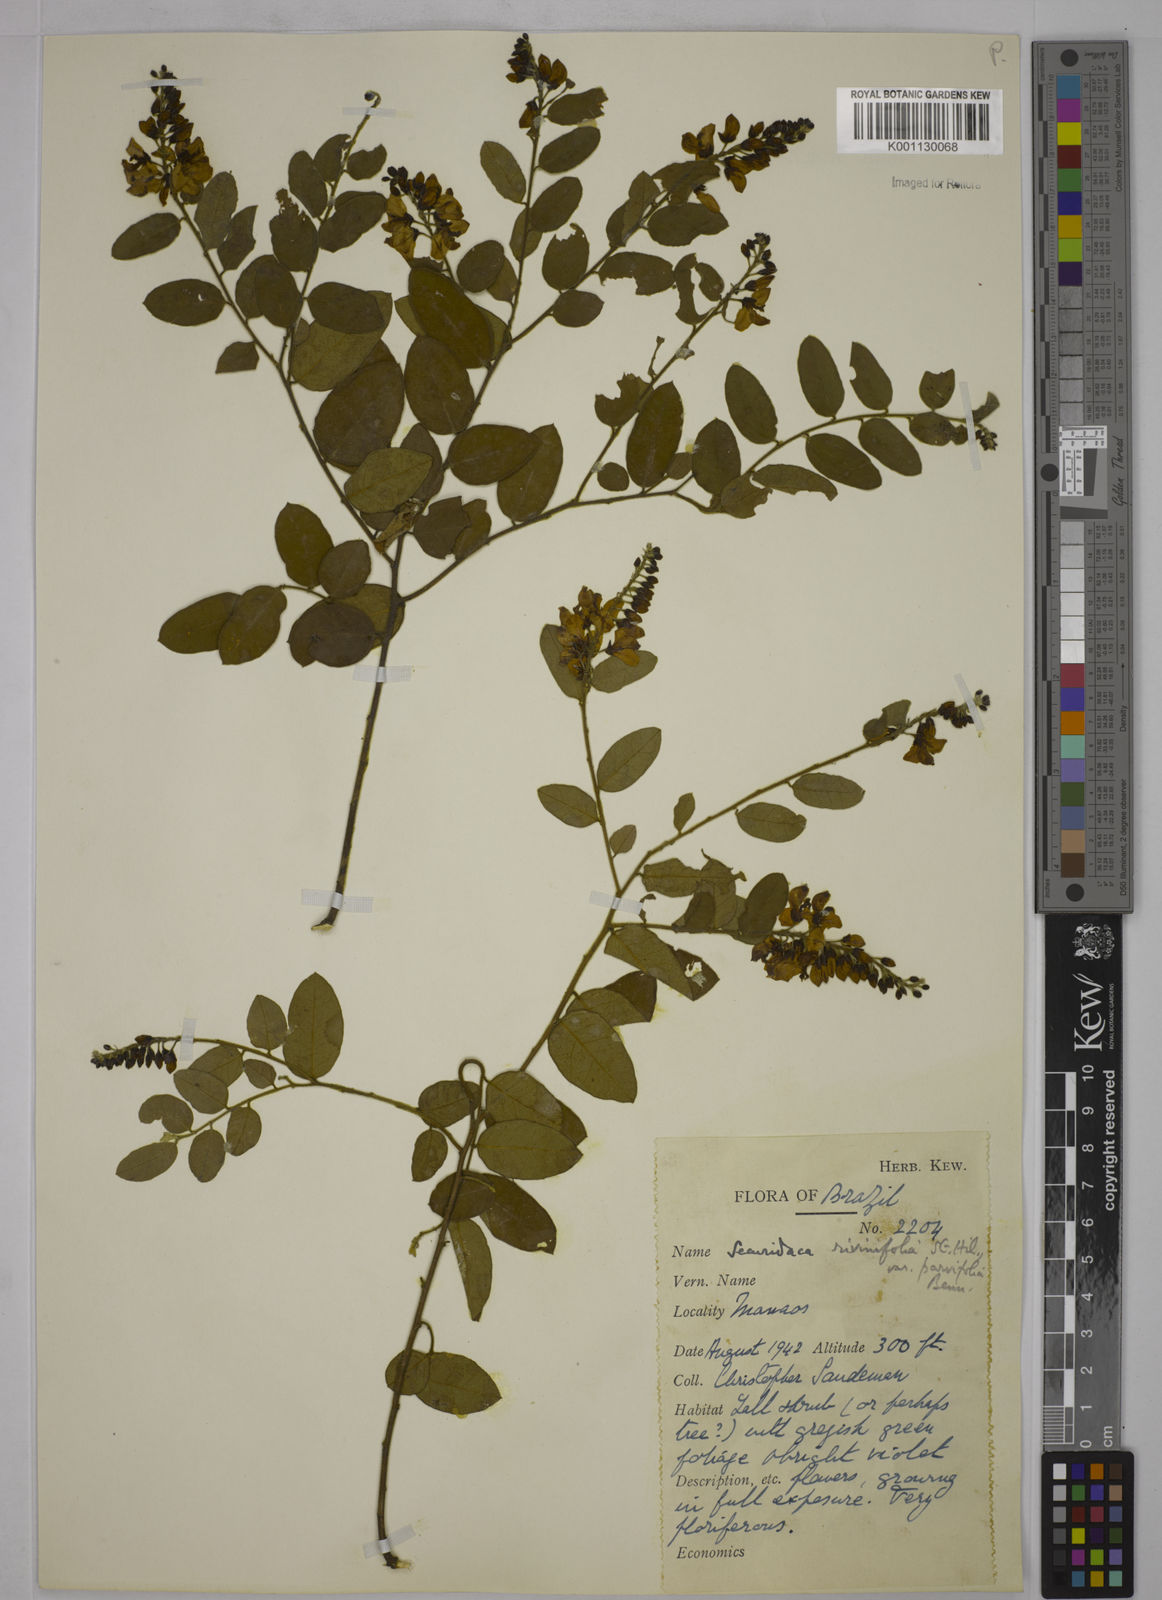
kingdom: Plantae
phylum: Tracheophyta
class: Magnoliopsida
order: Fabales
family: Polygalaceae
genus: Securidaca
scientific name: Securidaca rivinifolia
